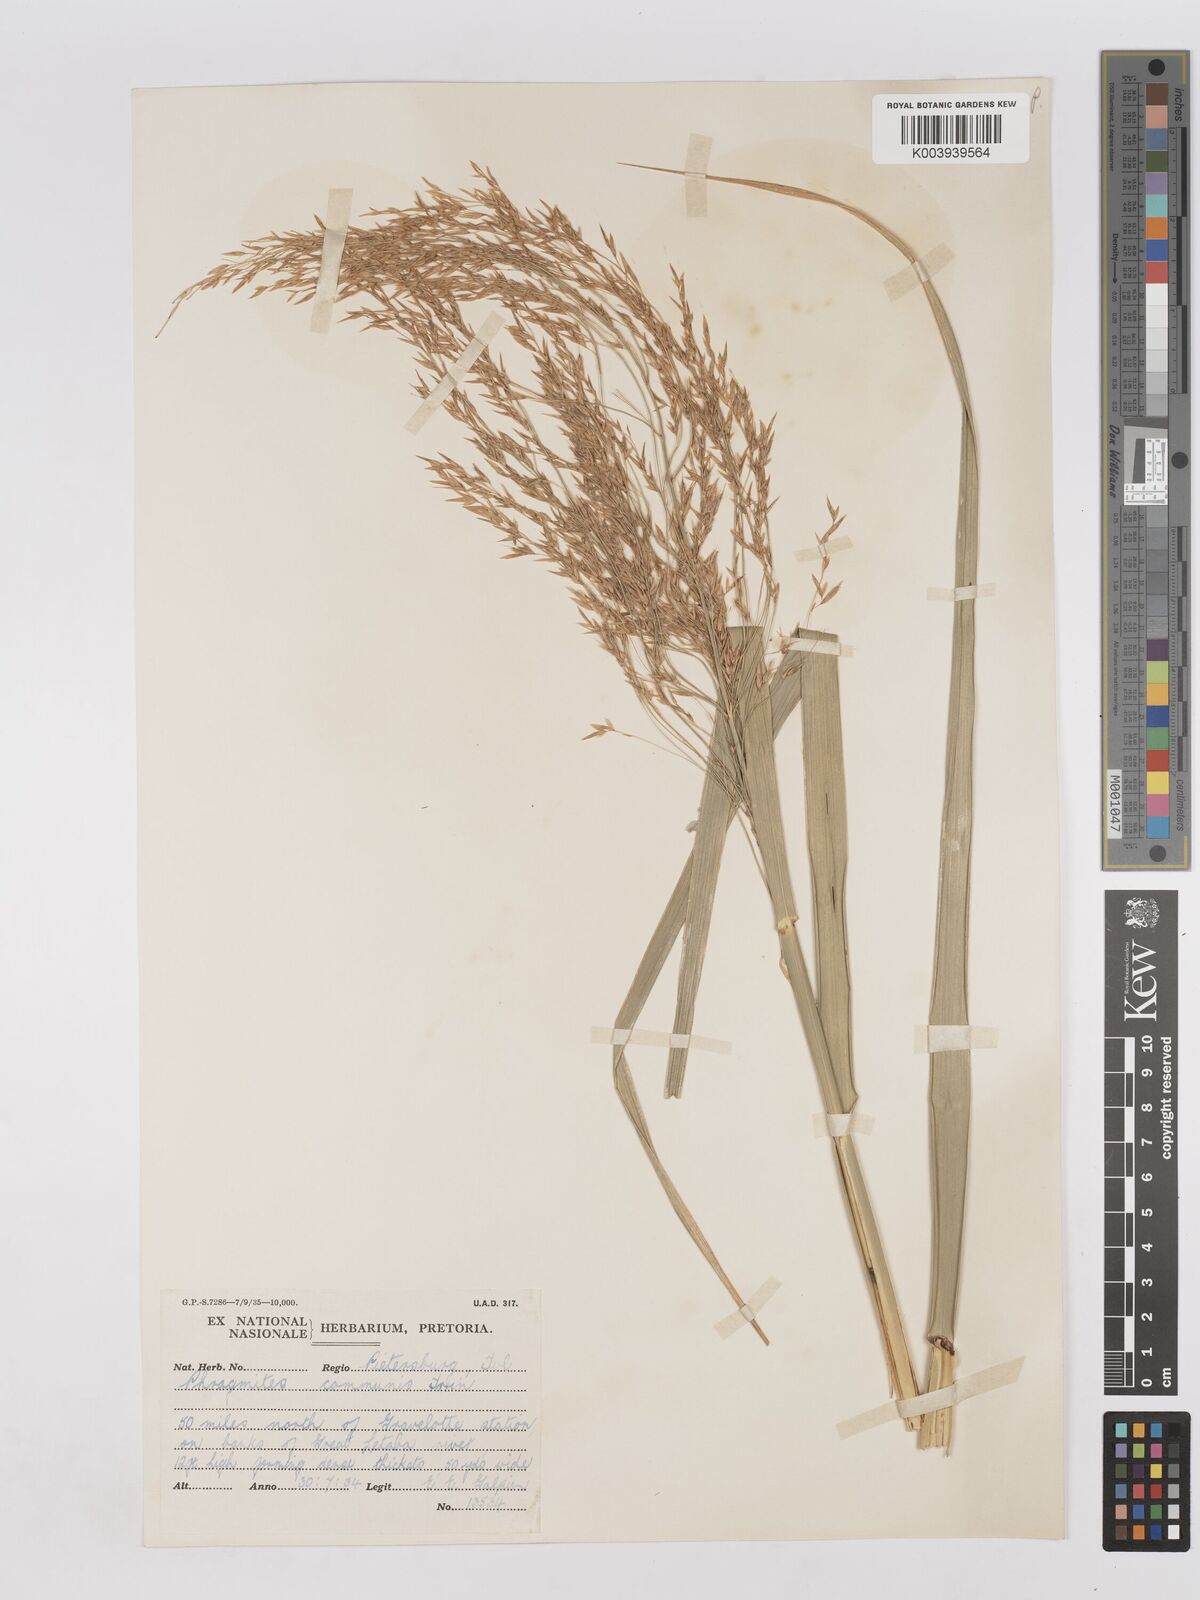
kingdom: Plantae
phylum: Tracheophyta
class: Liliopsida
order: Poales
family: Poaceae
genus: Phragmites
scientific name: Phragmites mauritianus
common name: Reed grass
